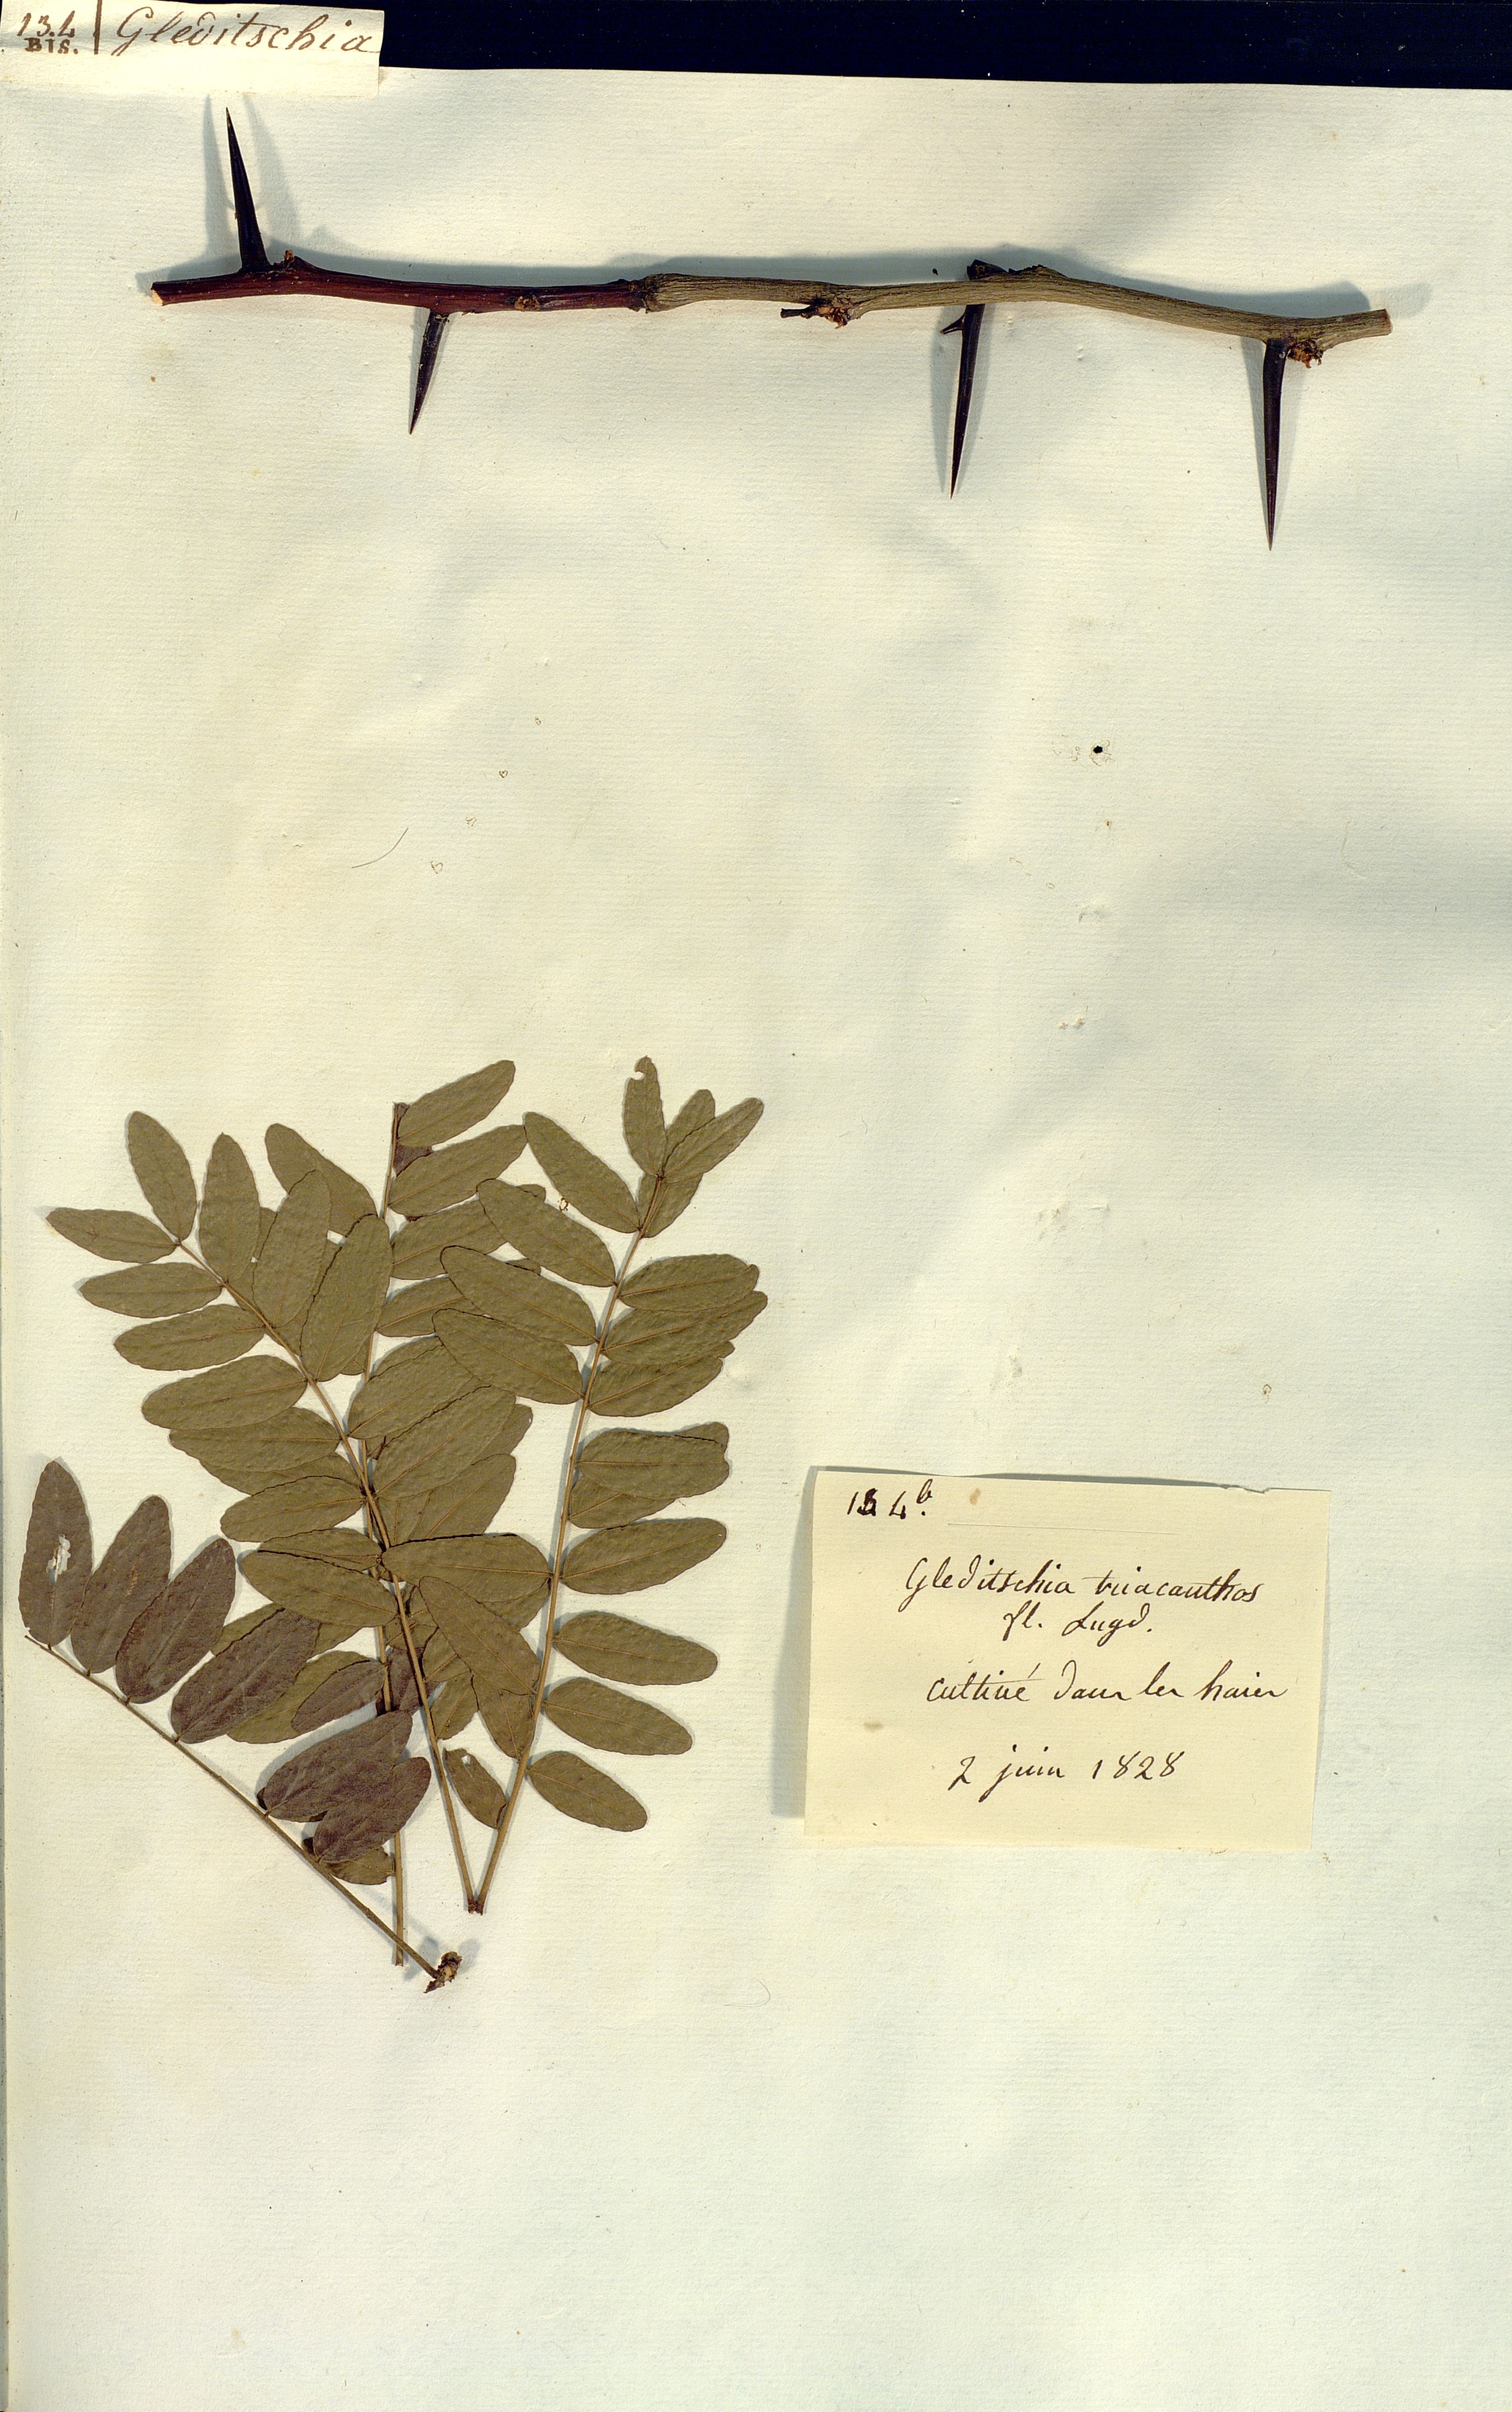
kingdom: Plantae
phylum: Tracheophyta
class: Magnoliopsida
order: Fabales
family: Fabaceae
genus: Gleditsia
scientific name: Gleditsia triacanthos
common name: Common honeylocust
